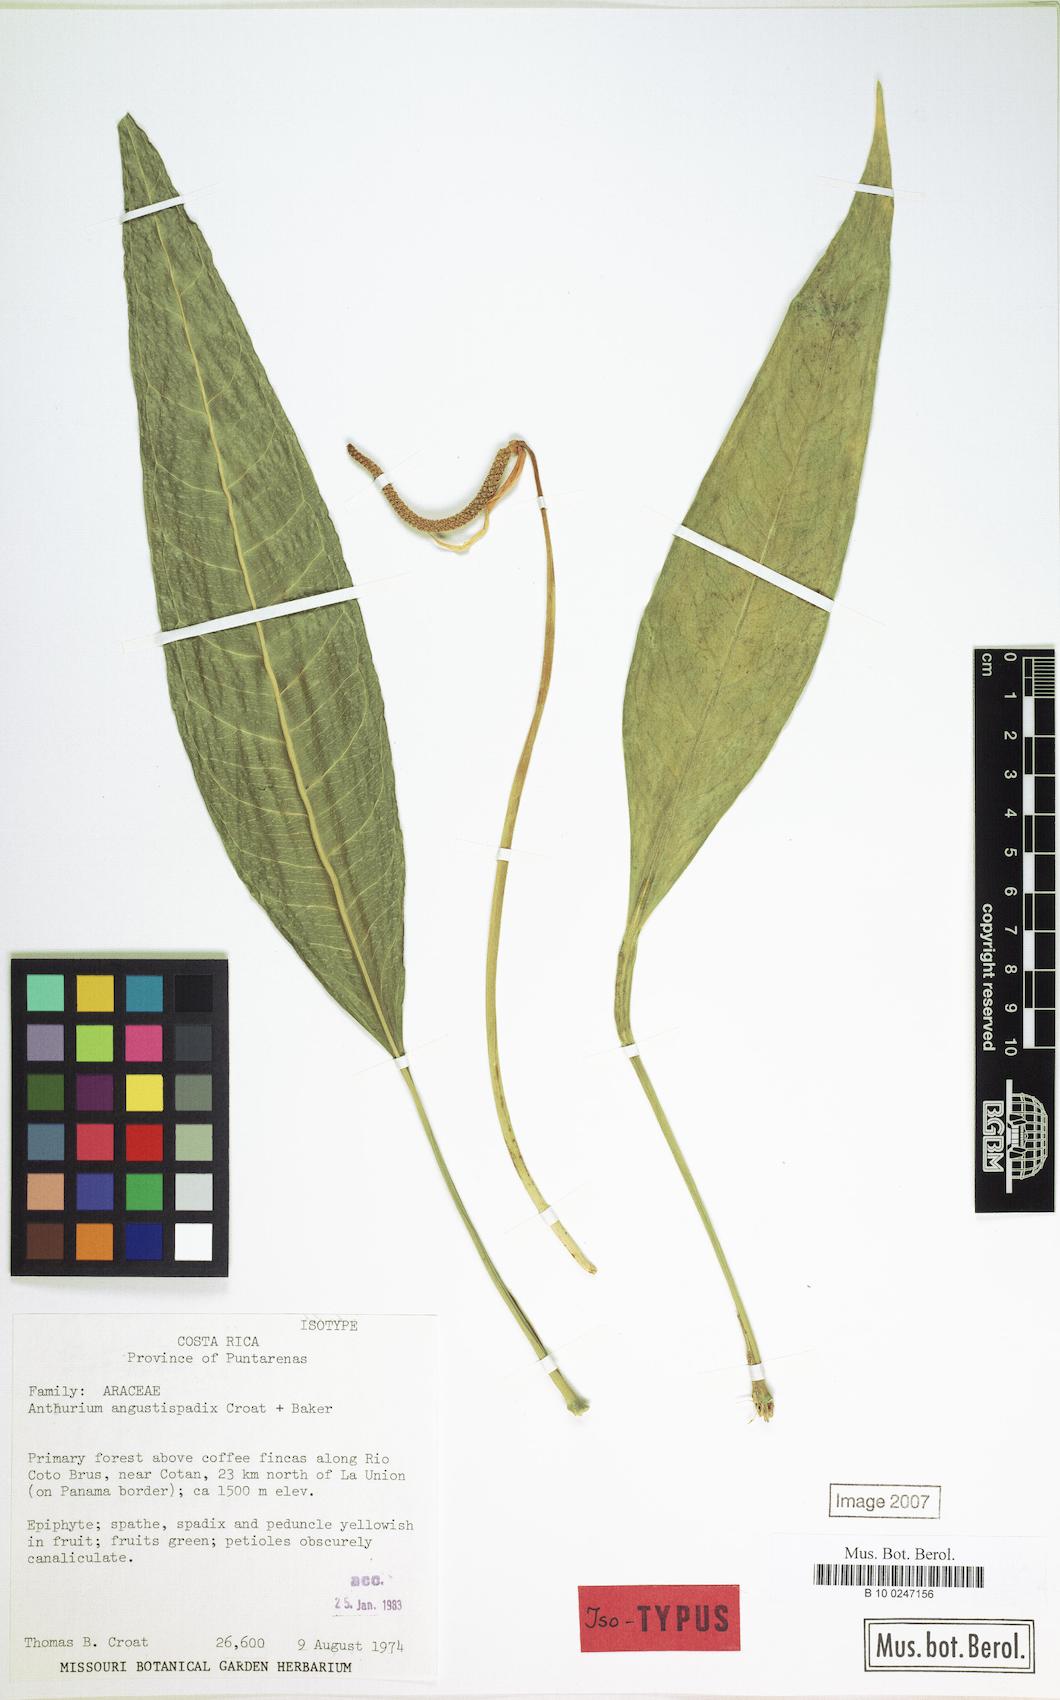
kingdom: Plantae
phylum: Tracheophyta
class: Liliopsida
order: Alismatales
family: Araceae
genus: Anthurium
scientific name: Anthurium angustispadix
